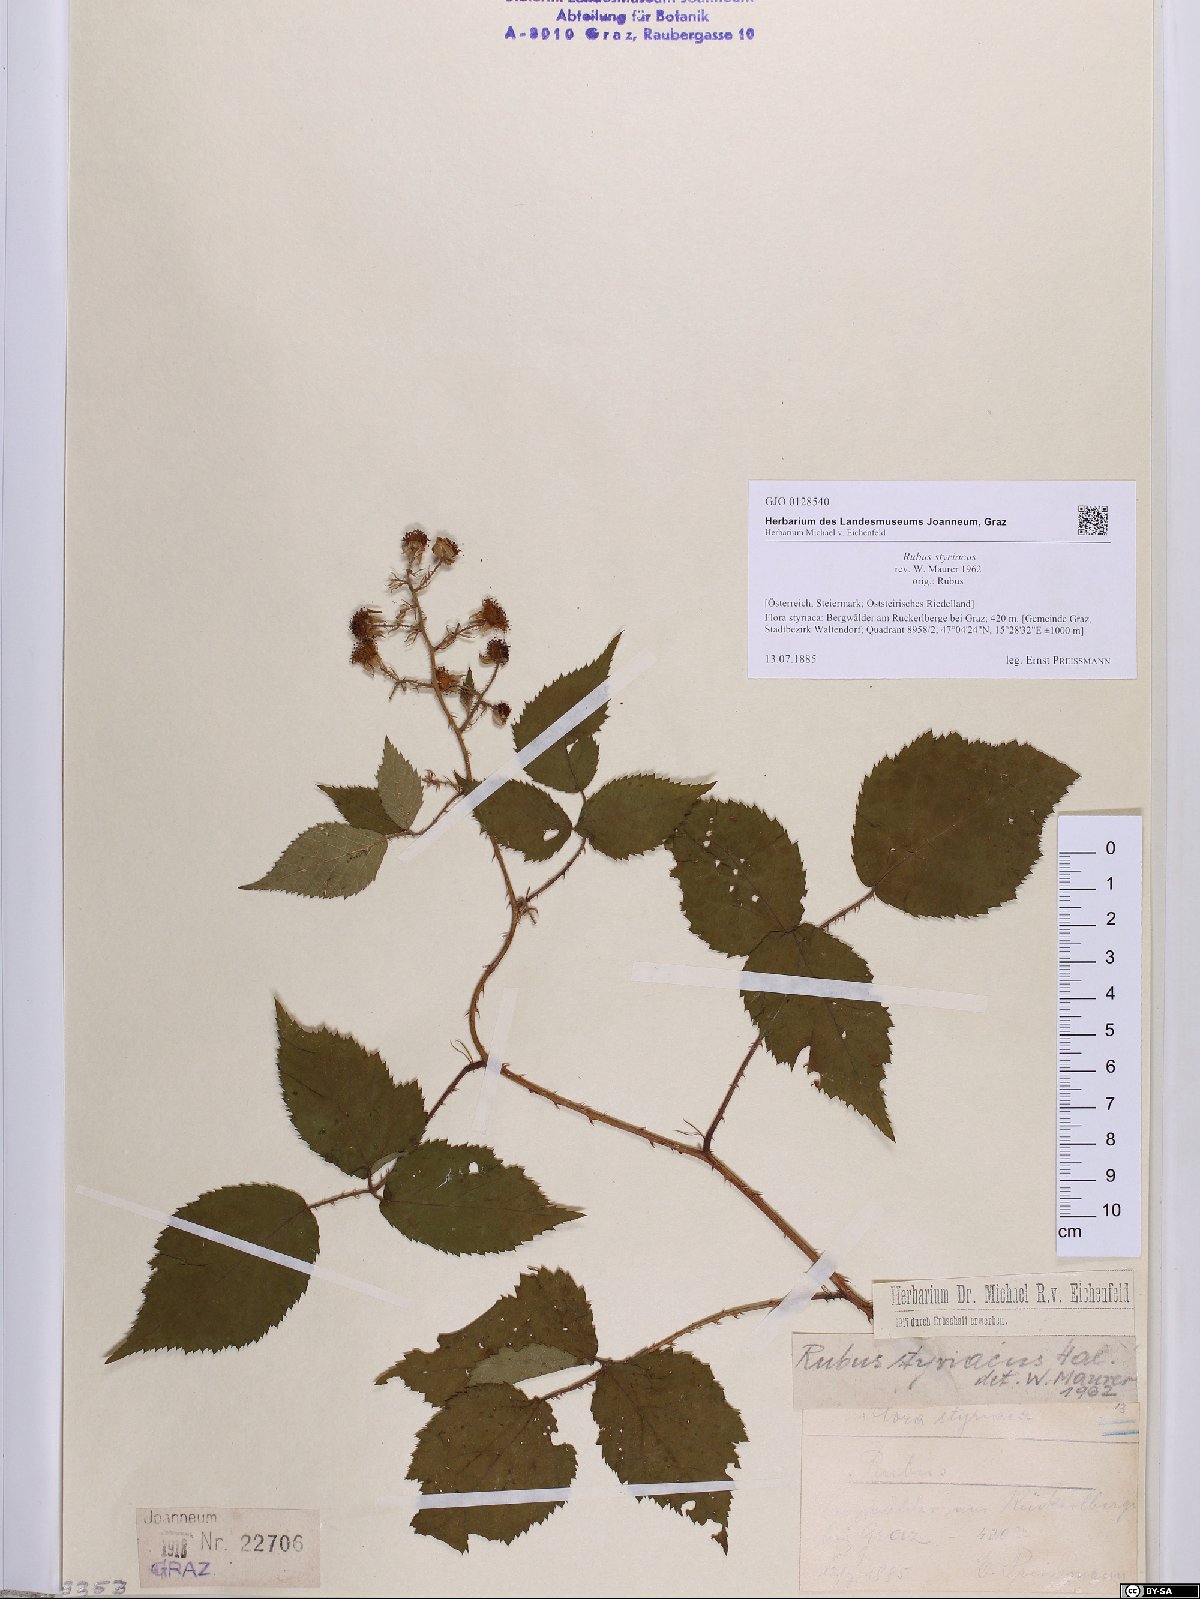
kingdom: Plantae
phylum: Tracheophyta
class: Magnoliopsida
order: Rosales
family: Rosaceae
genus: Rubus
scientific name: Rubus styriacus
